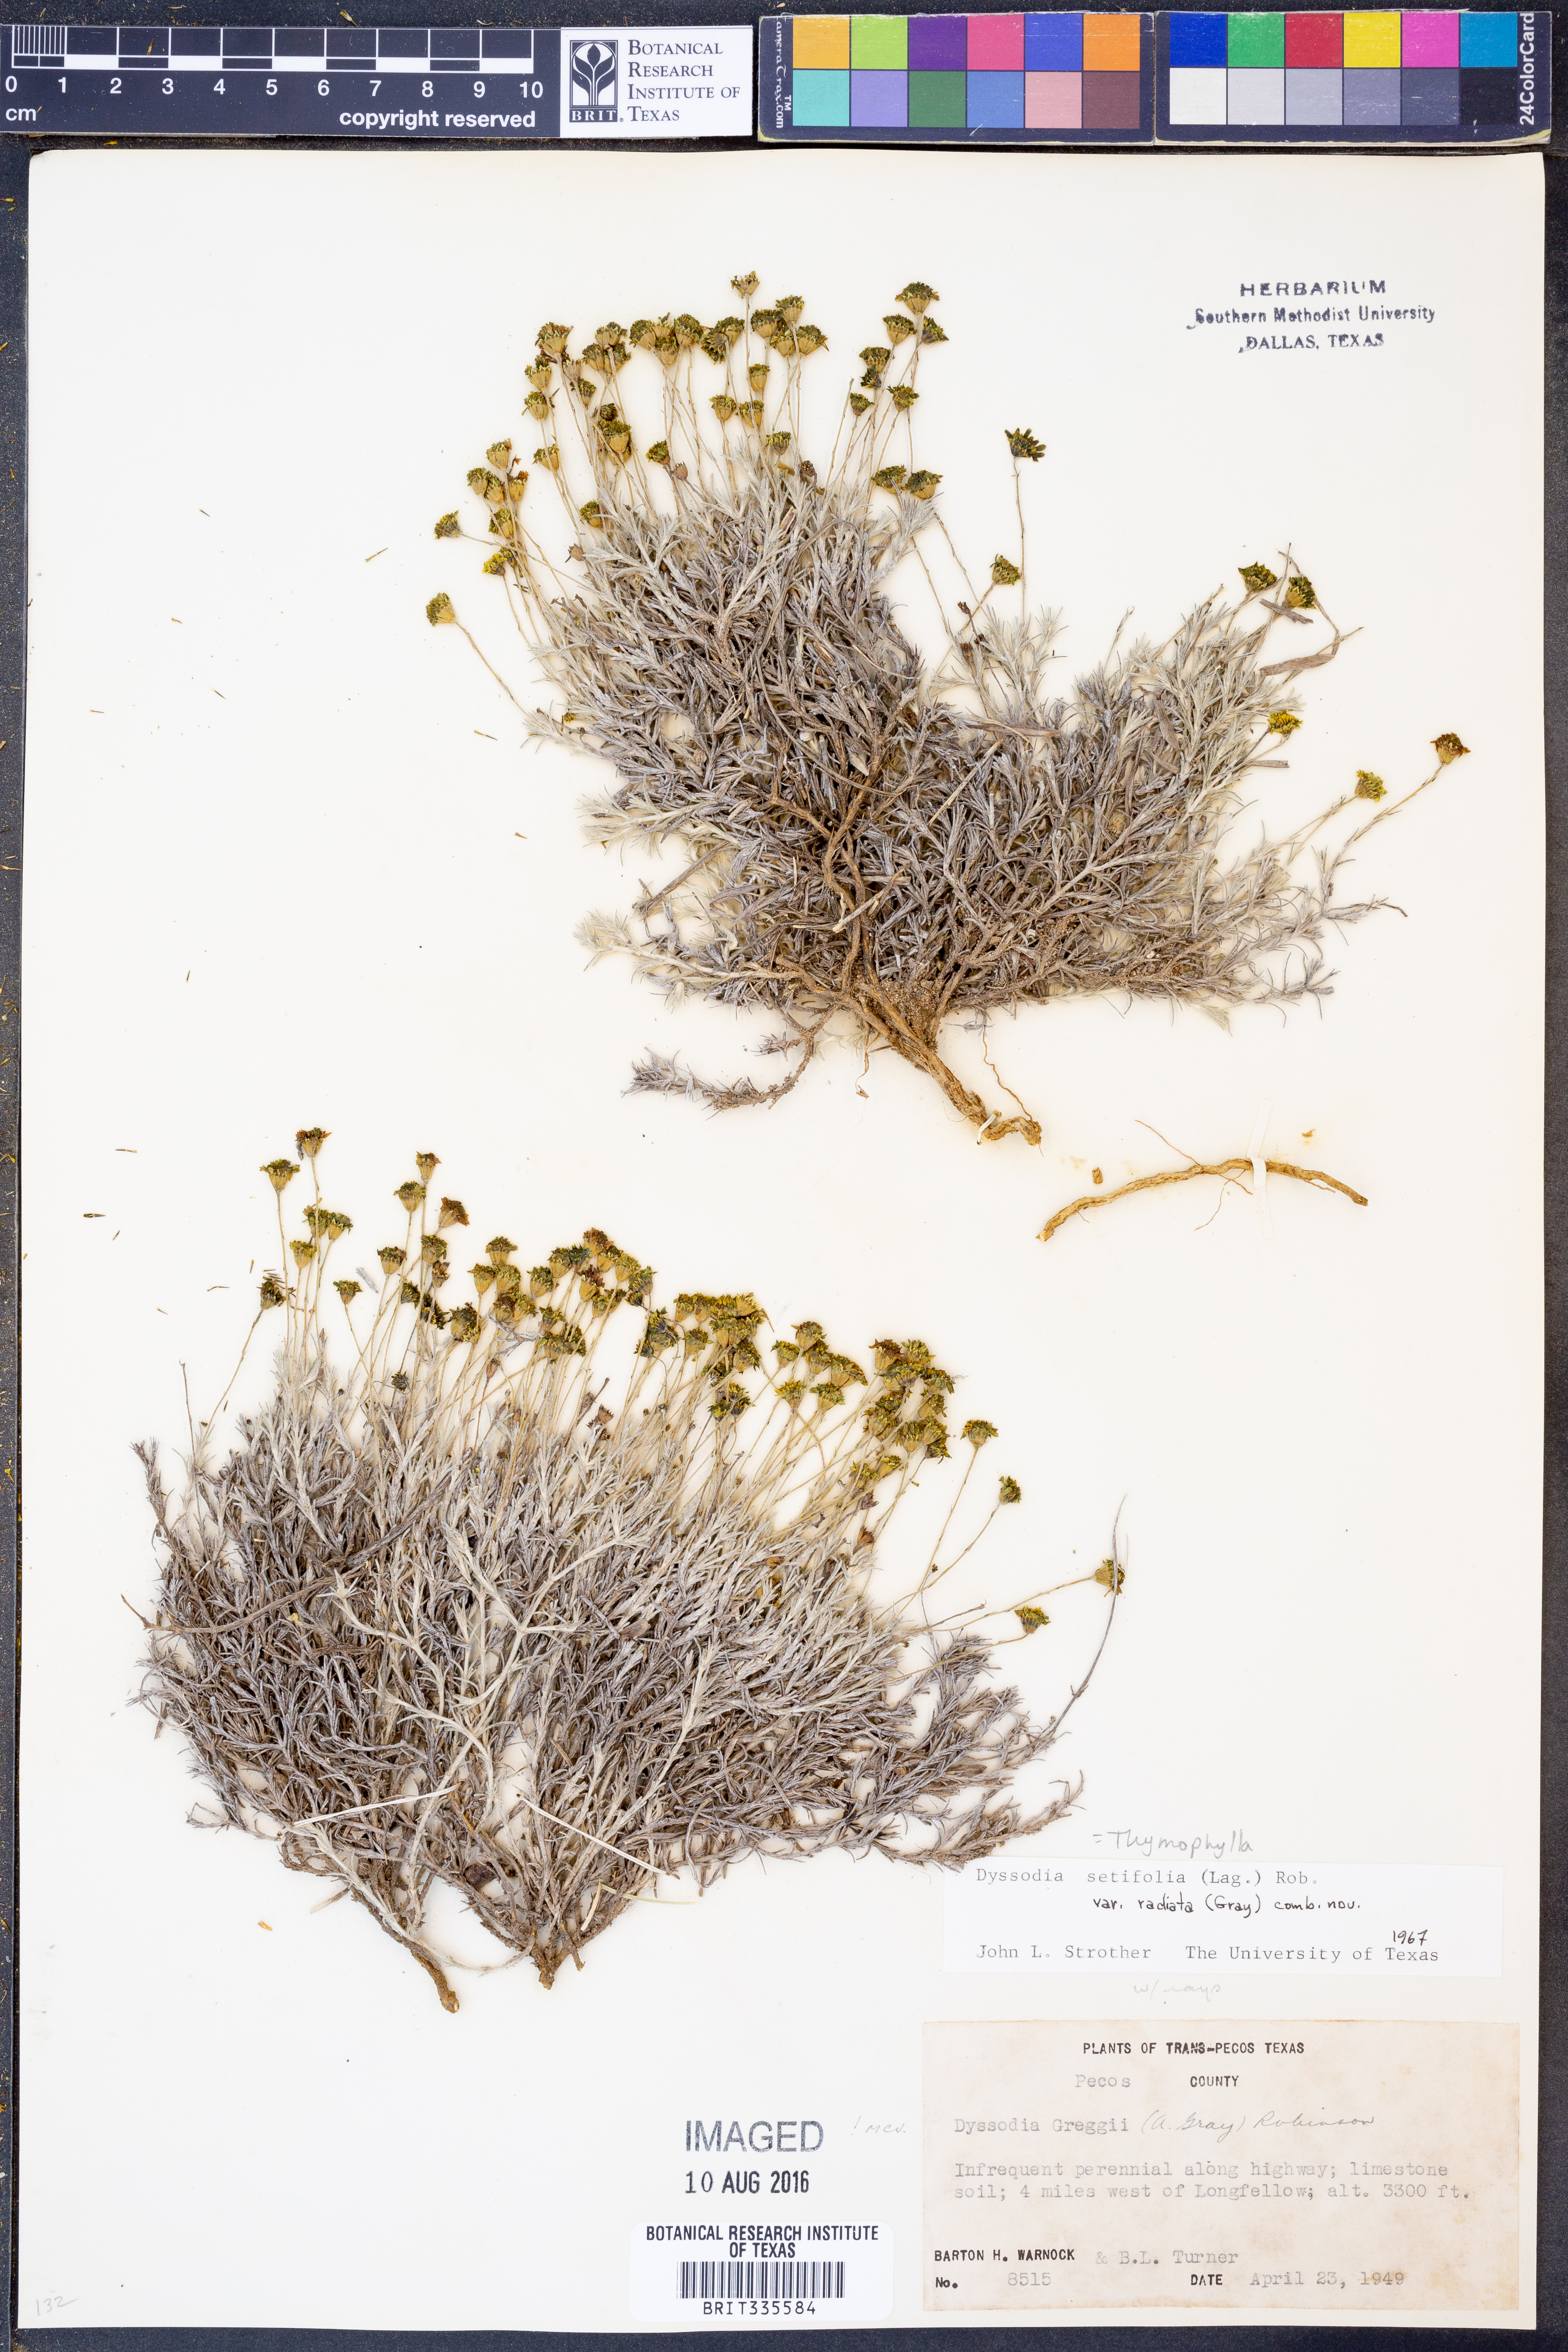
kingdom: Plantae
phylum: Tracheophyta
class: Magnoliopsida
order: Asterales
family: Asteraceae
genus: Thymophylla
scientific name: Thymophylla setifolia
